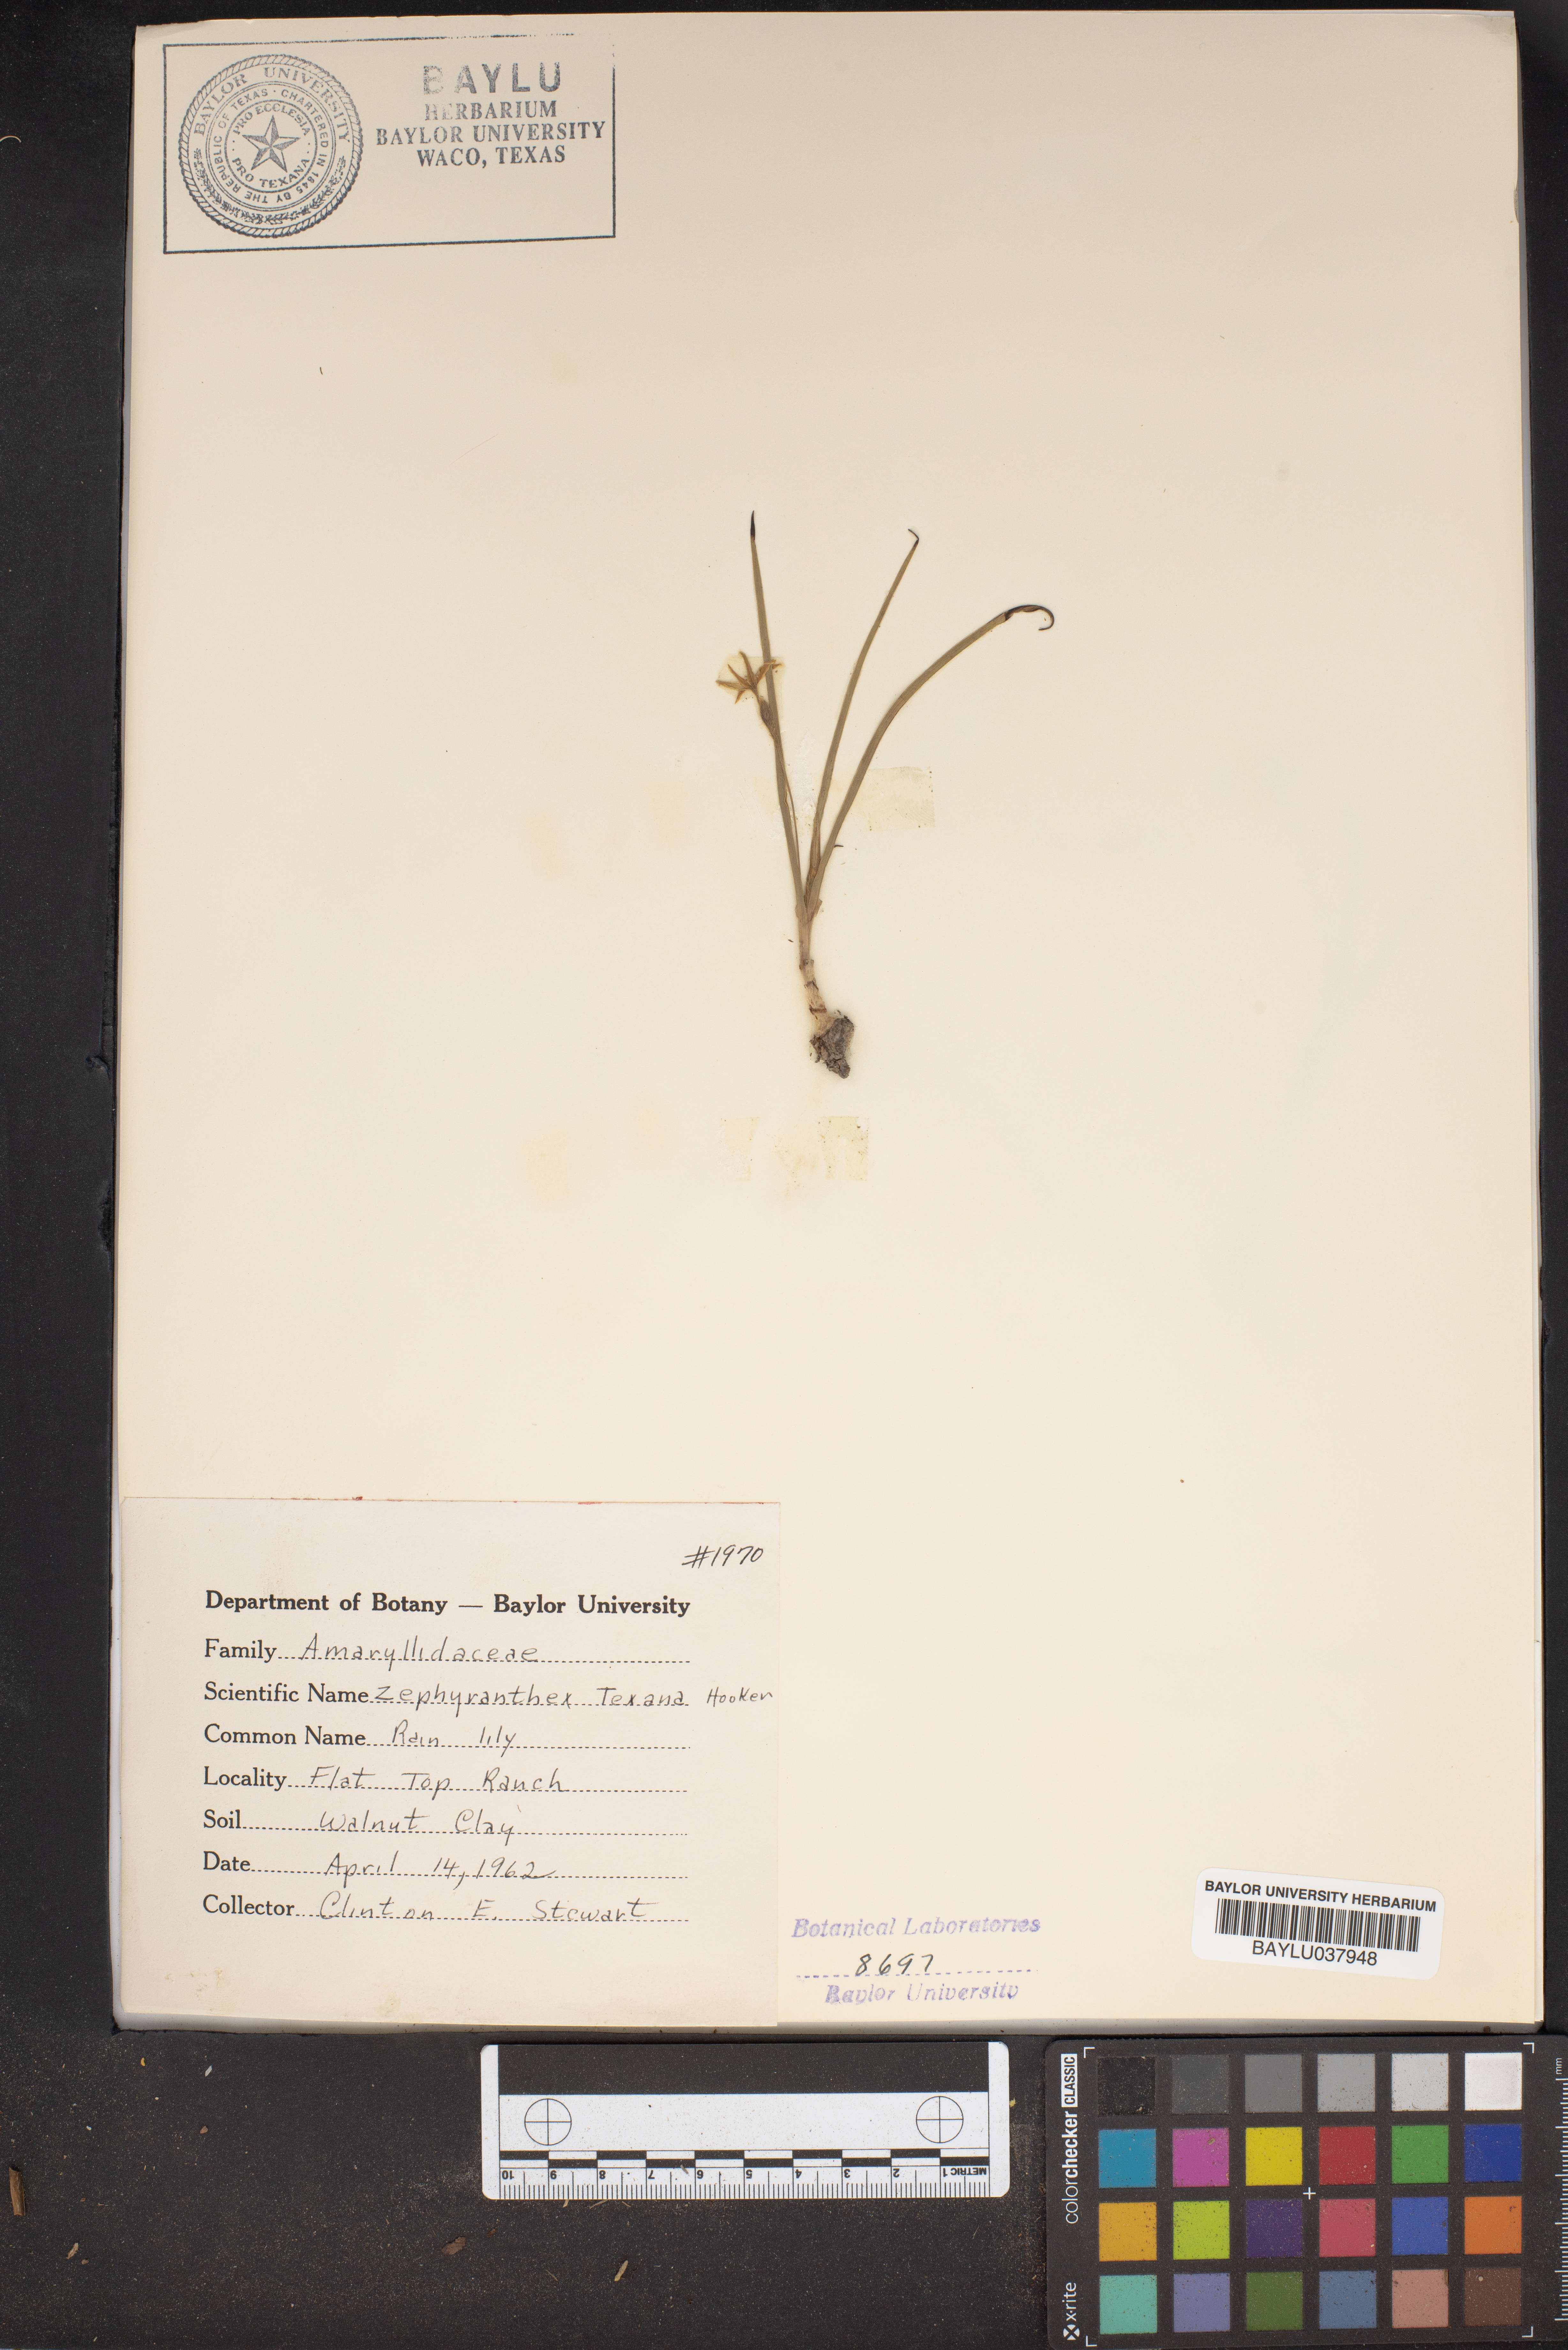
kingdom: Plantae
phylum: Tracheophyta
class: Liliopsida
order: Asparagales
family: Amaryllidaceae
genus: Zephyranthes
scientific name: Zephyranthes tubispatha
